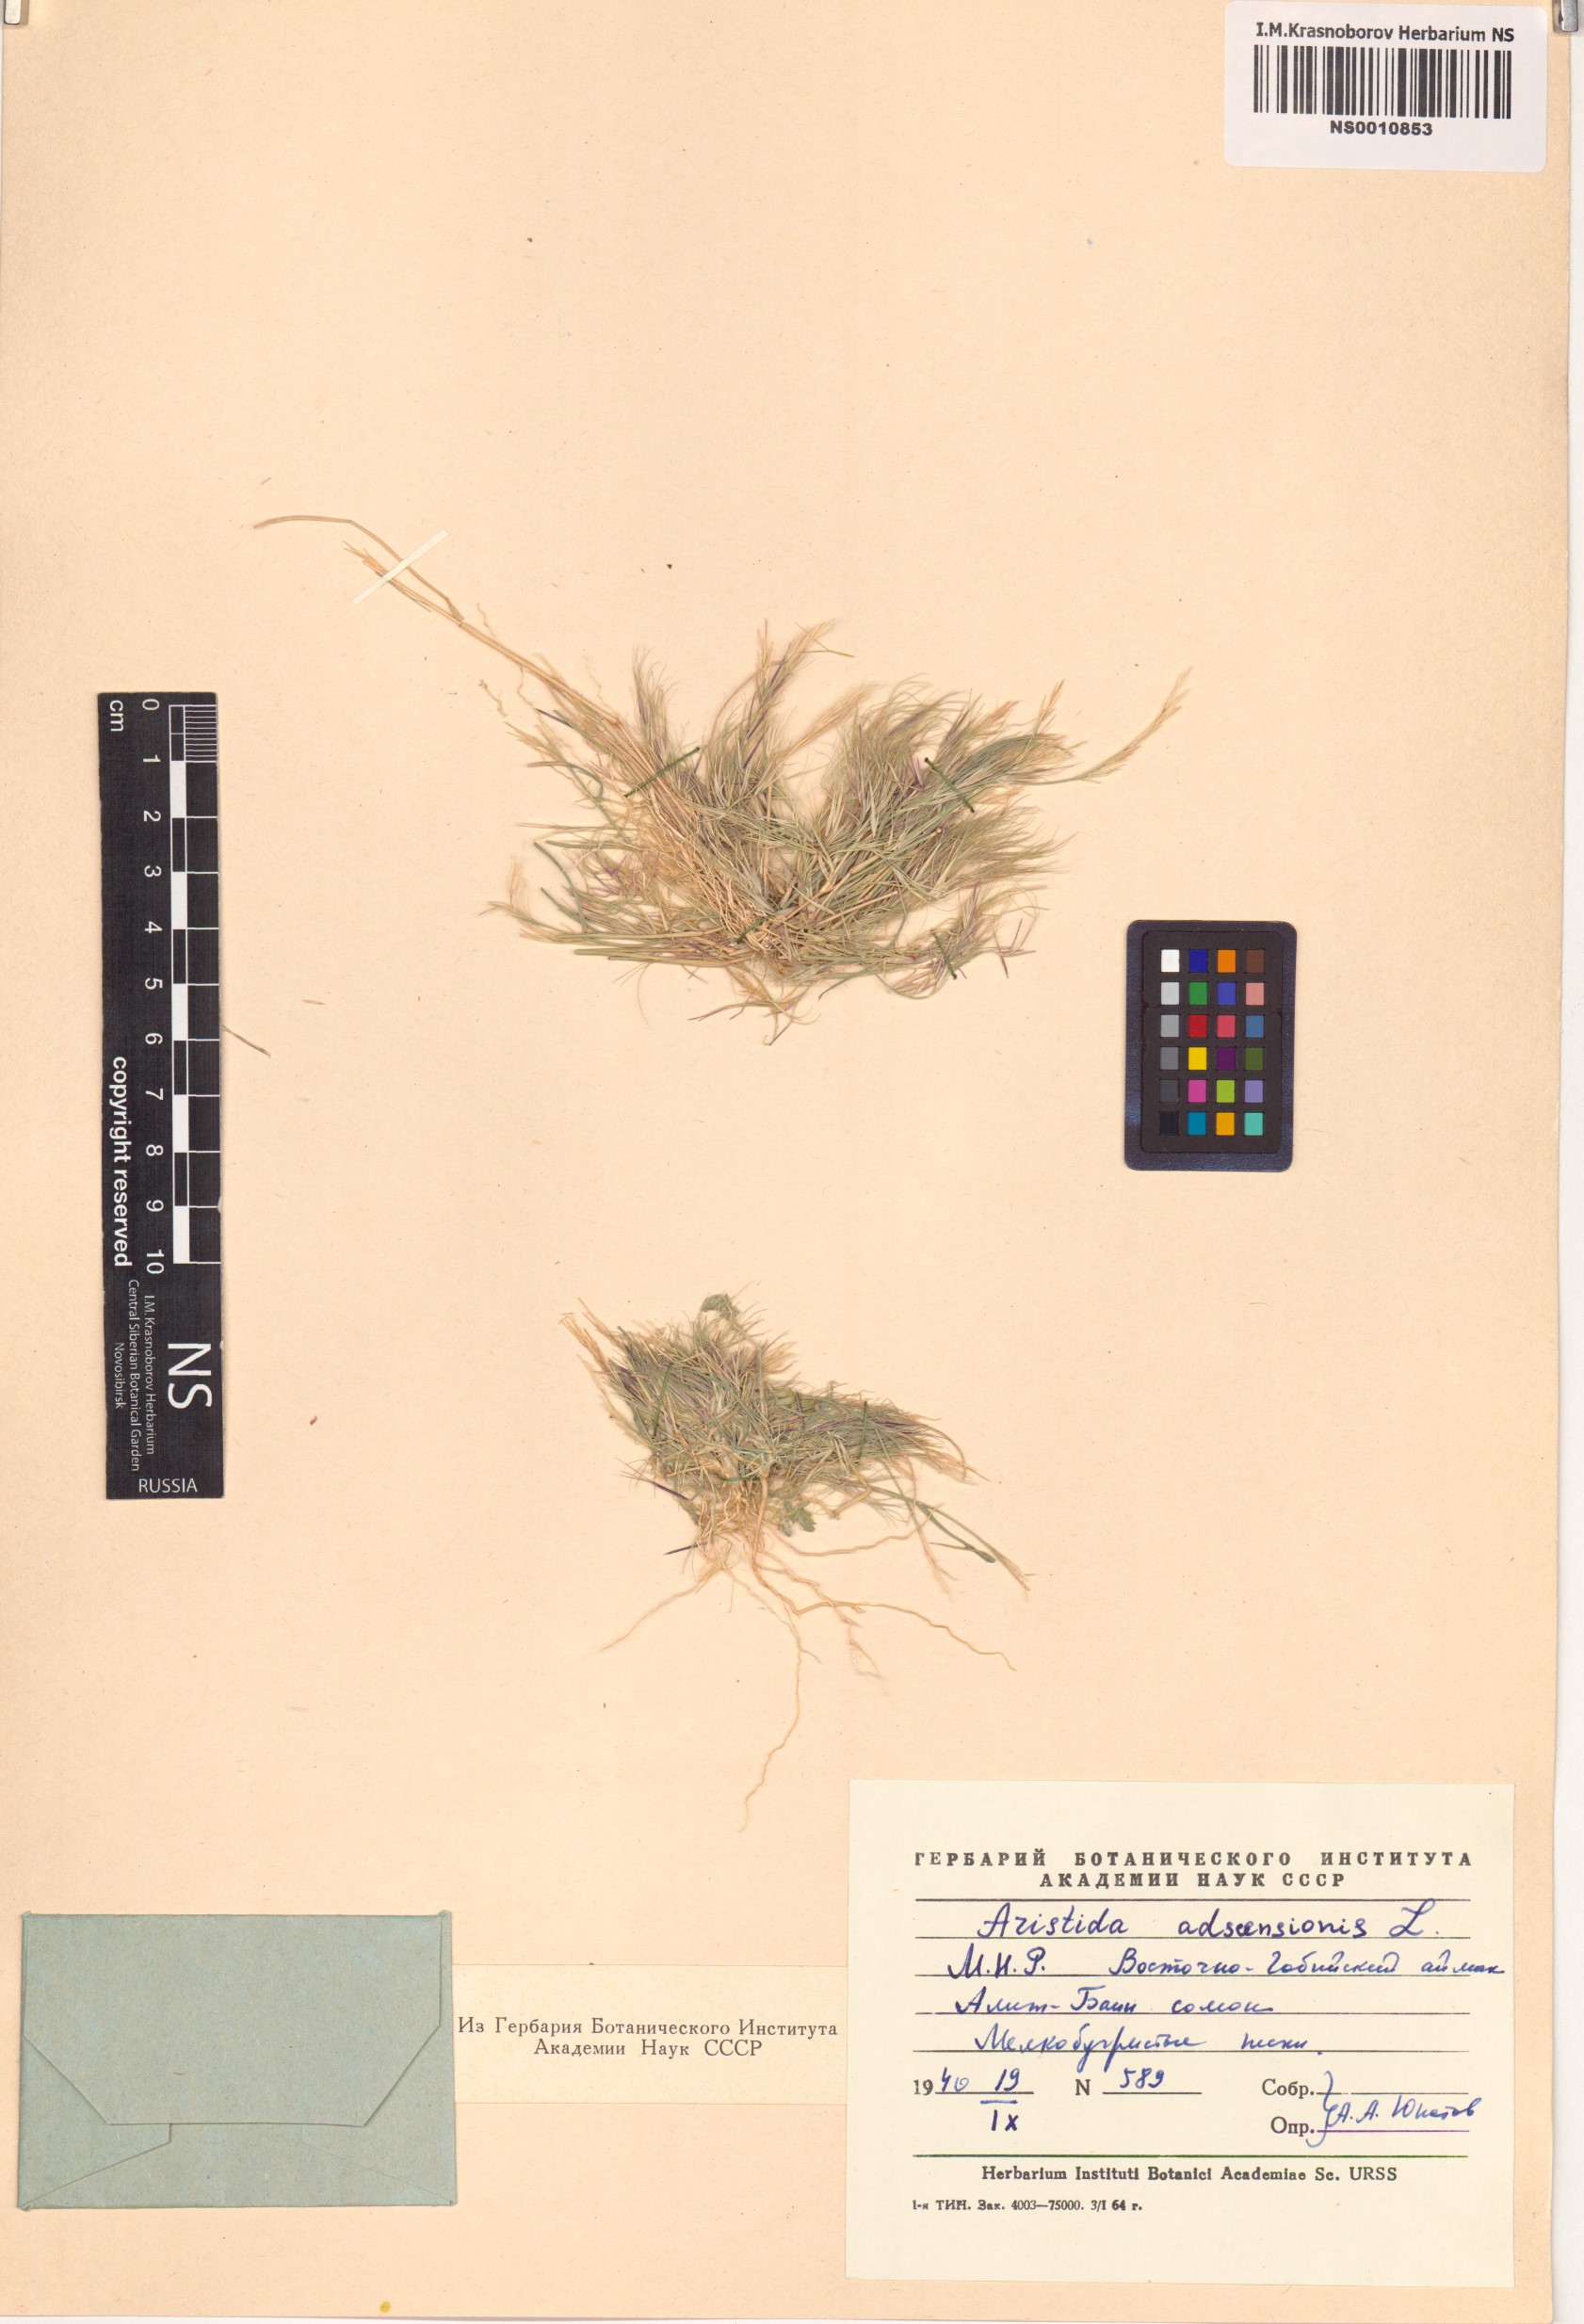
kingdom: Plantae
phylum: Tracheophyta
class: Liliopsida
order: Poales
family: Poaceae
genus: Aristida
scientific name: Aristida adscensionis
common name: Sixweeks threeawn
